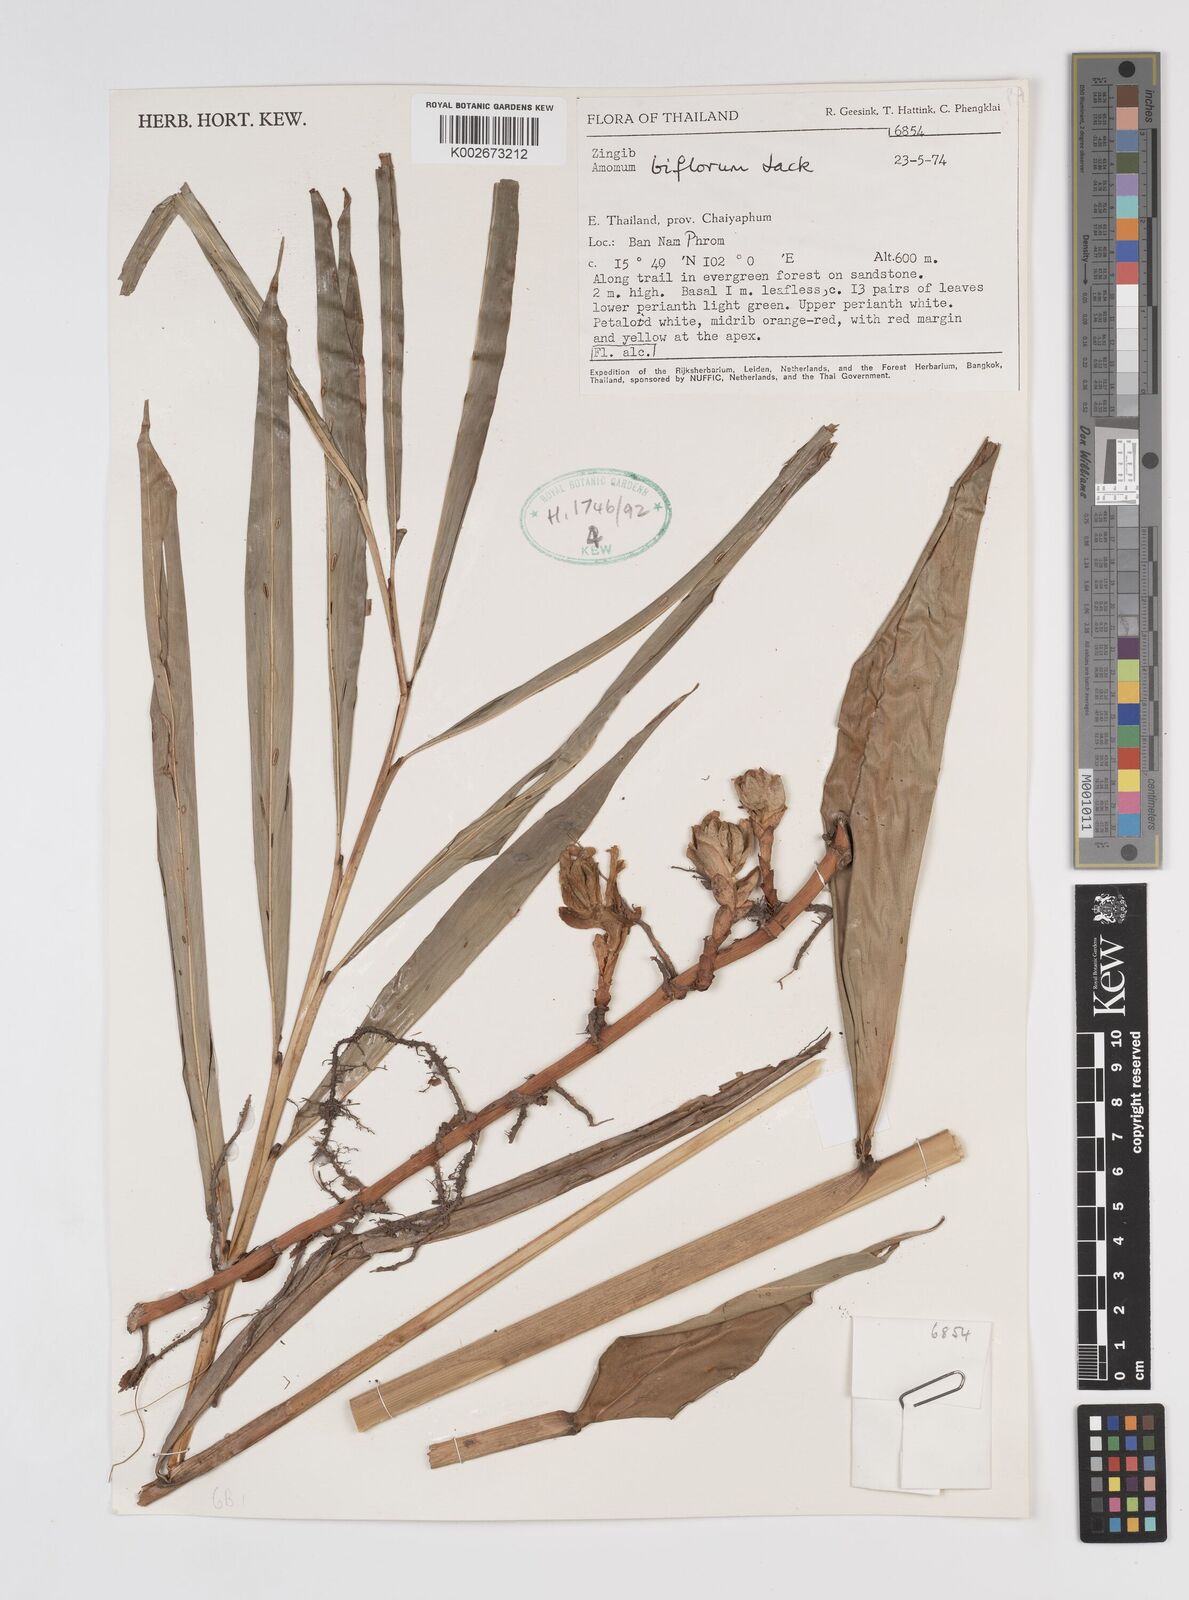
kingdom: Plantae
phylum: Tracheophyta
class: Liliopsida
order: Zingiberales
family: Zingiberaceae
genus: Wurfbainia
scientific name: Wurfbainia biflora
